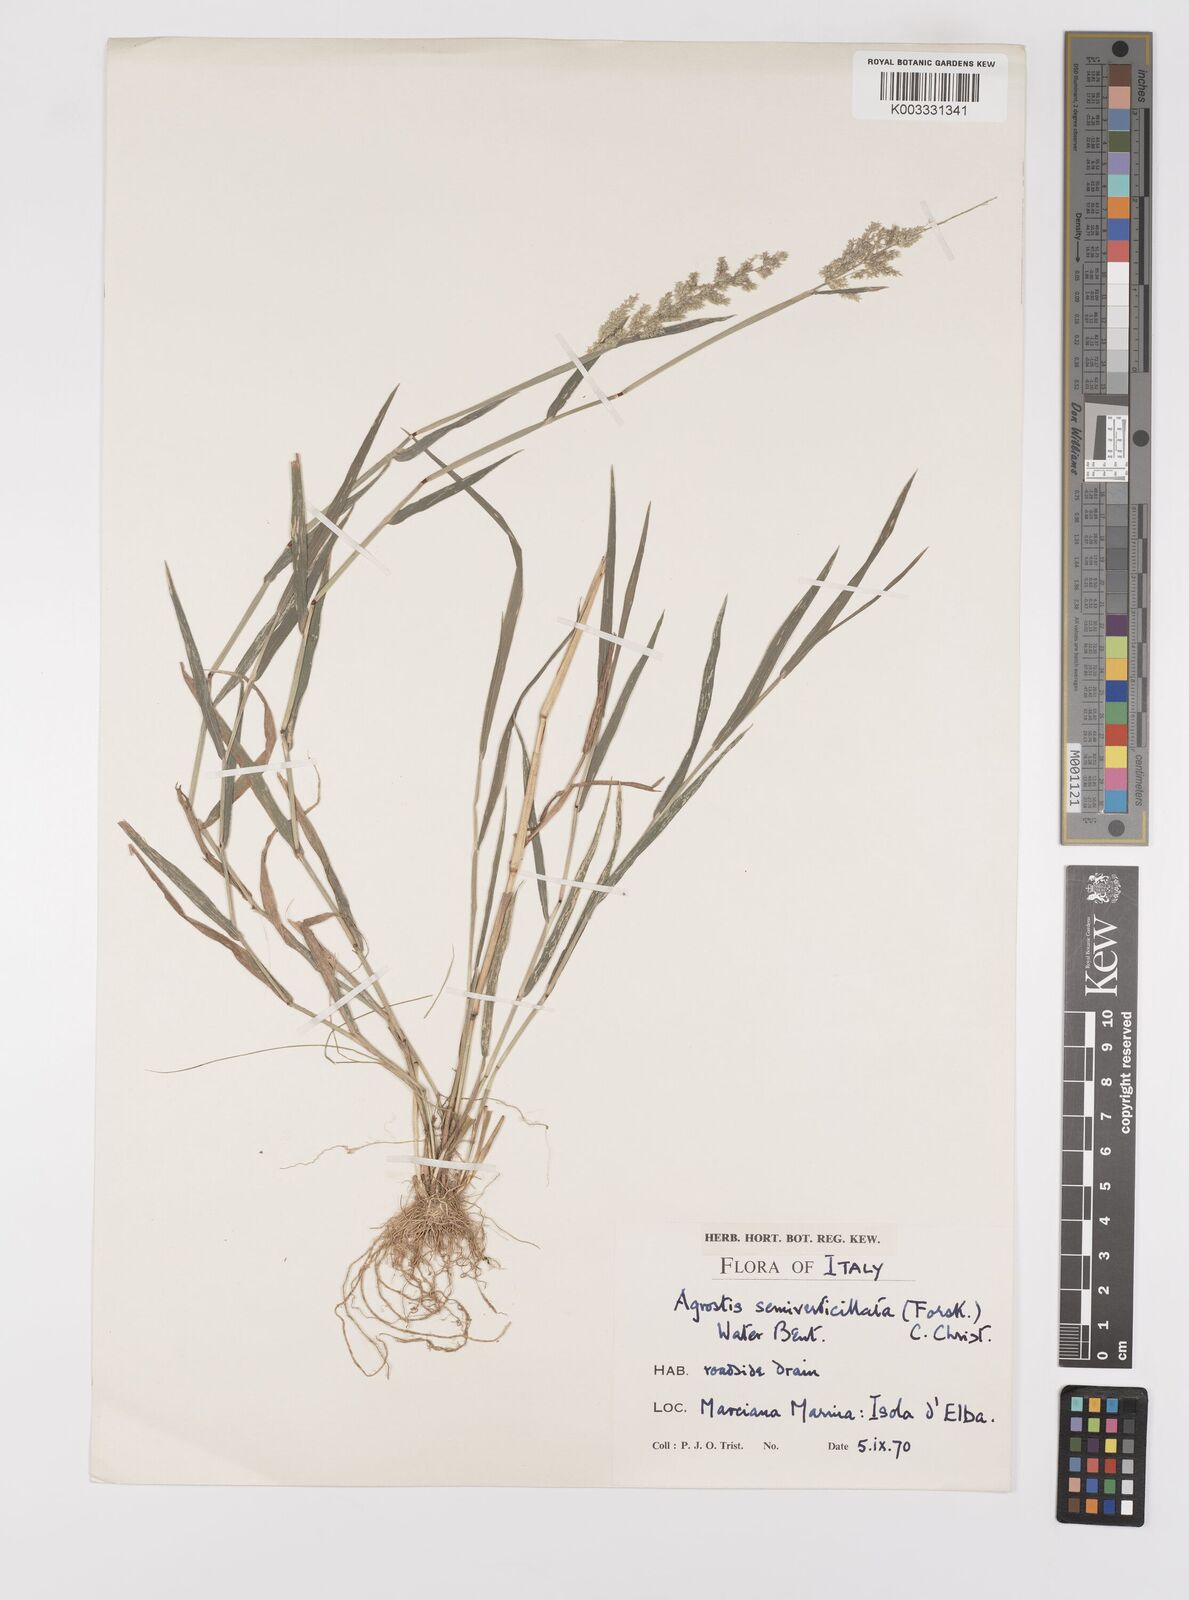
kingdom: Plantae
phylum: Tracheophyta
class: Liliopsida
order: Poales
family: Poaceae
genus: Polypogon
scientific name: Polypogon viridis
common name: Water bent
